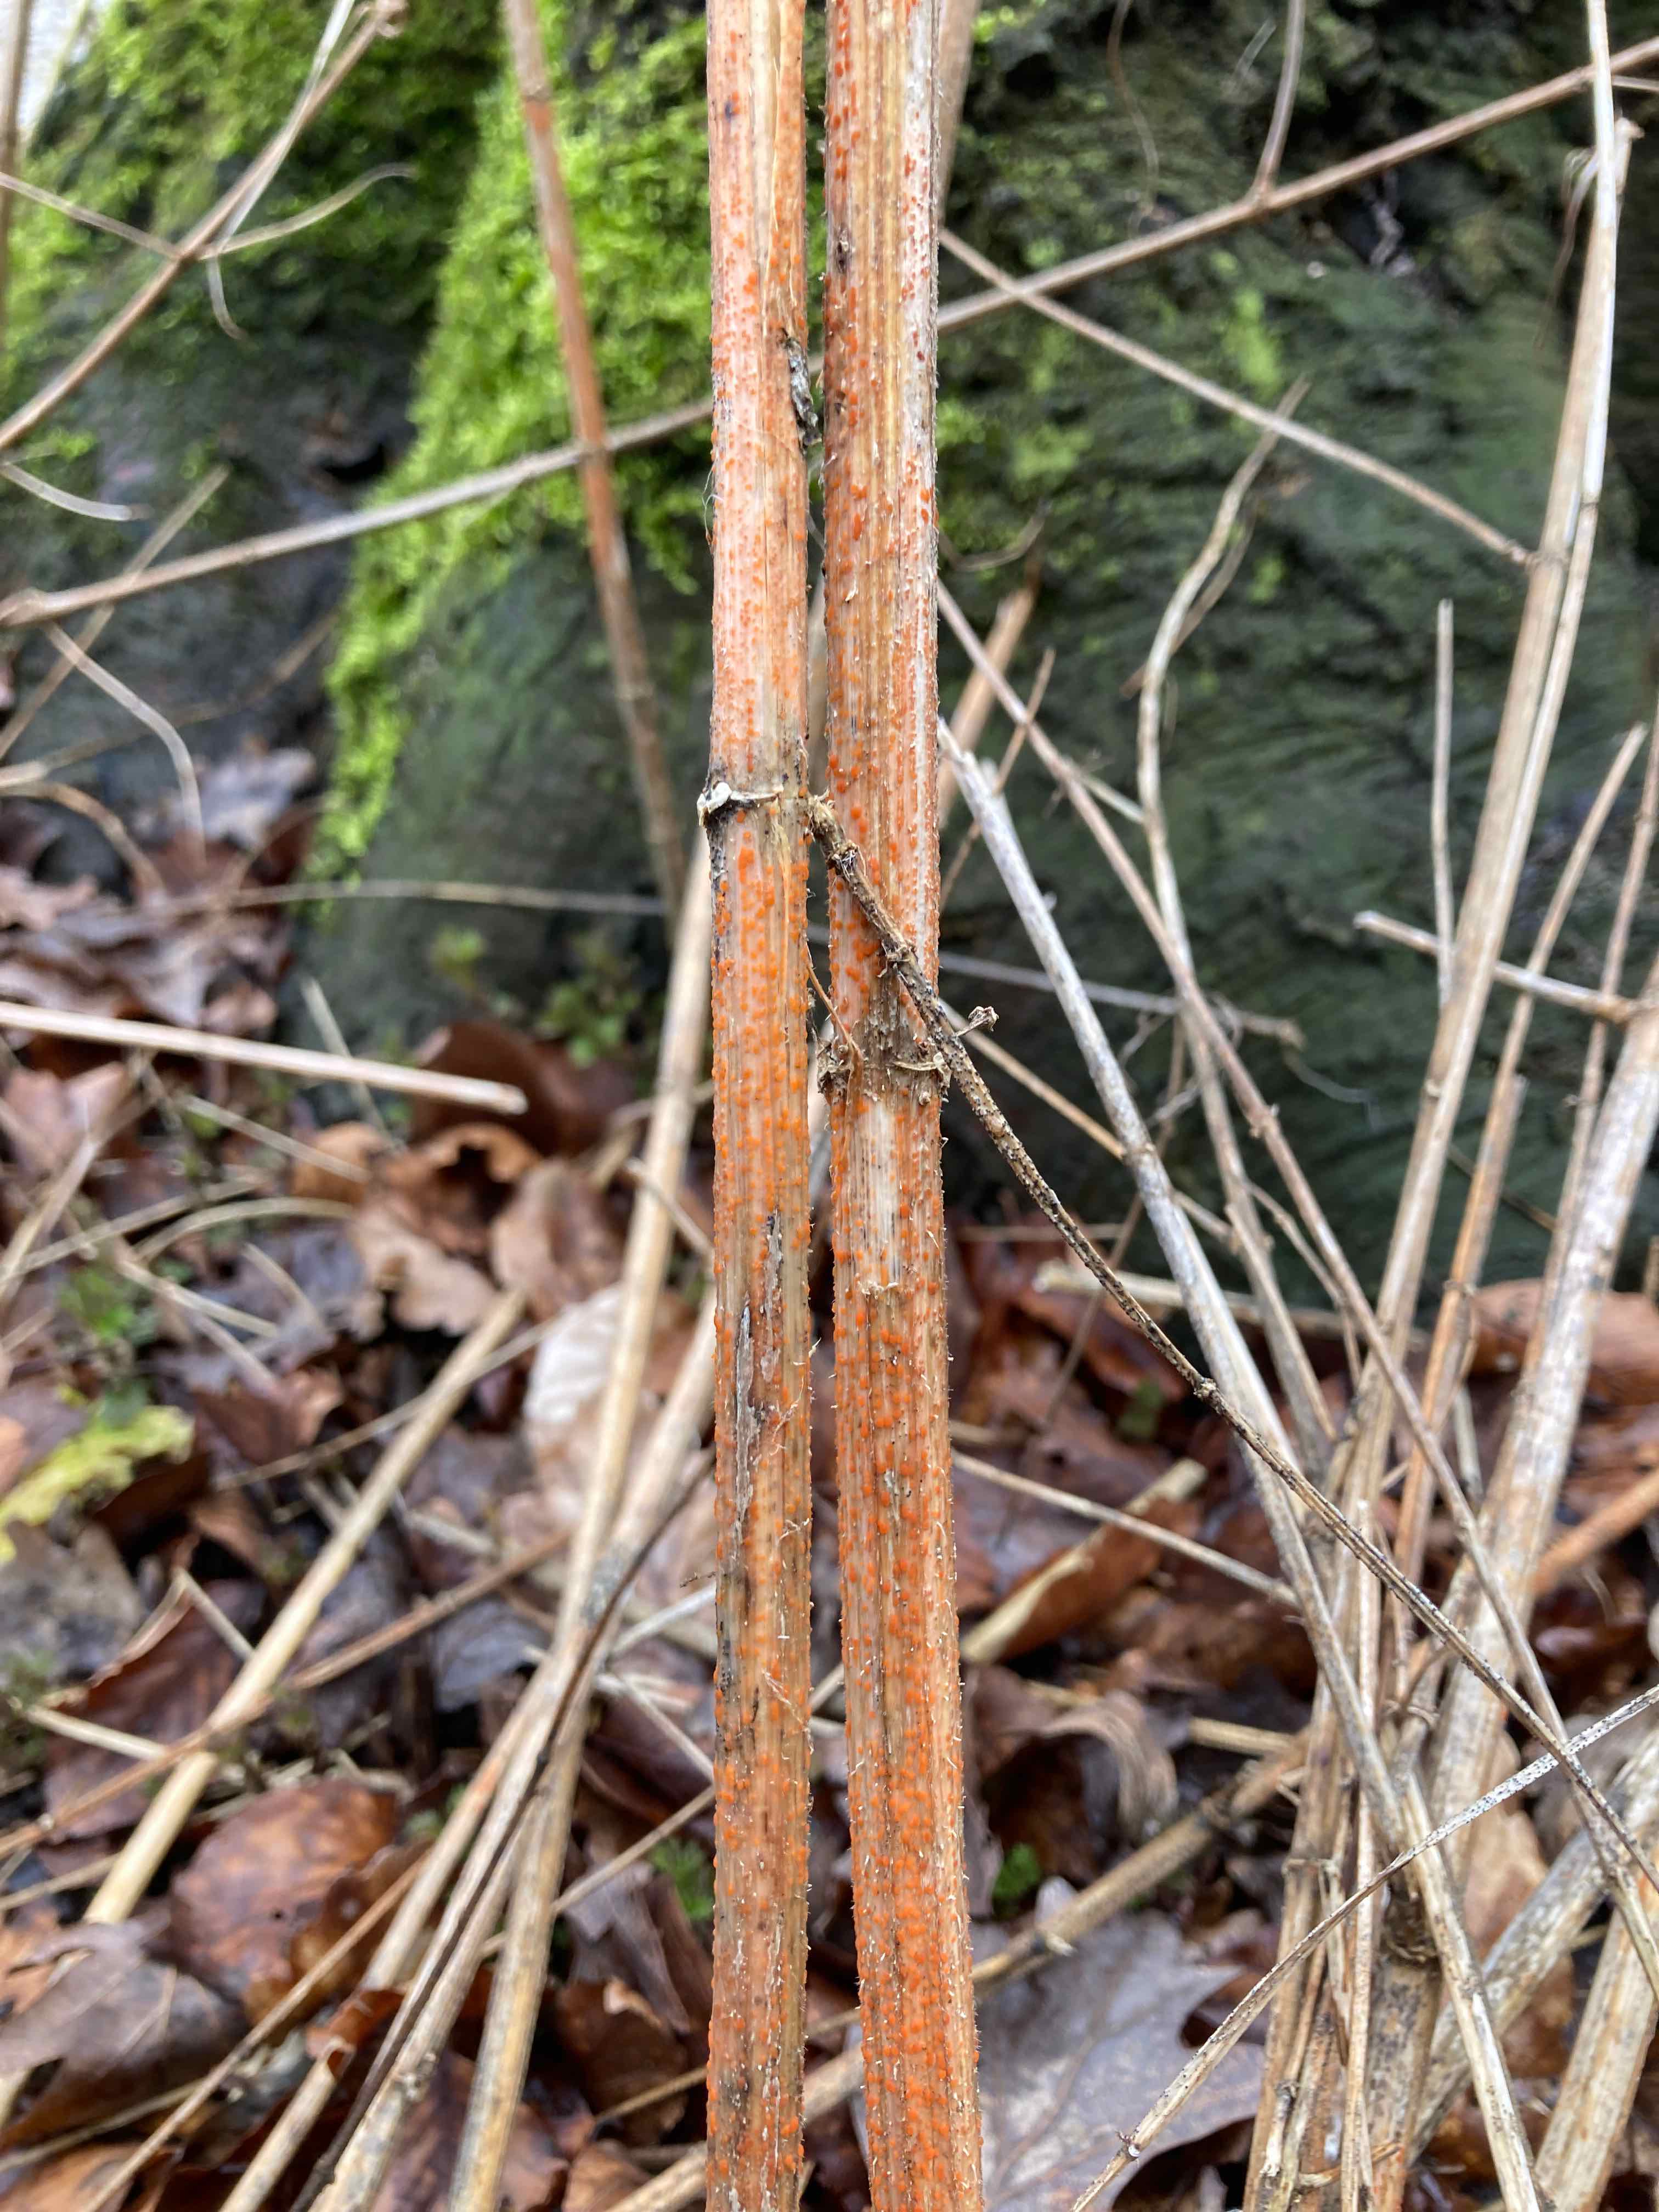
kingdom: Fungi
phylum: Ascomycota
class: Leotiomycetes
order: Helotiales
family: Calloriaceae
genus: Calloria
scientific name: Calloria urticae
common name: nælde-orangeskive
